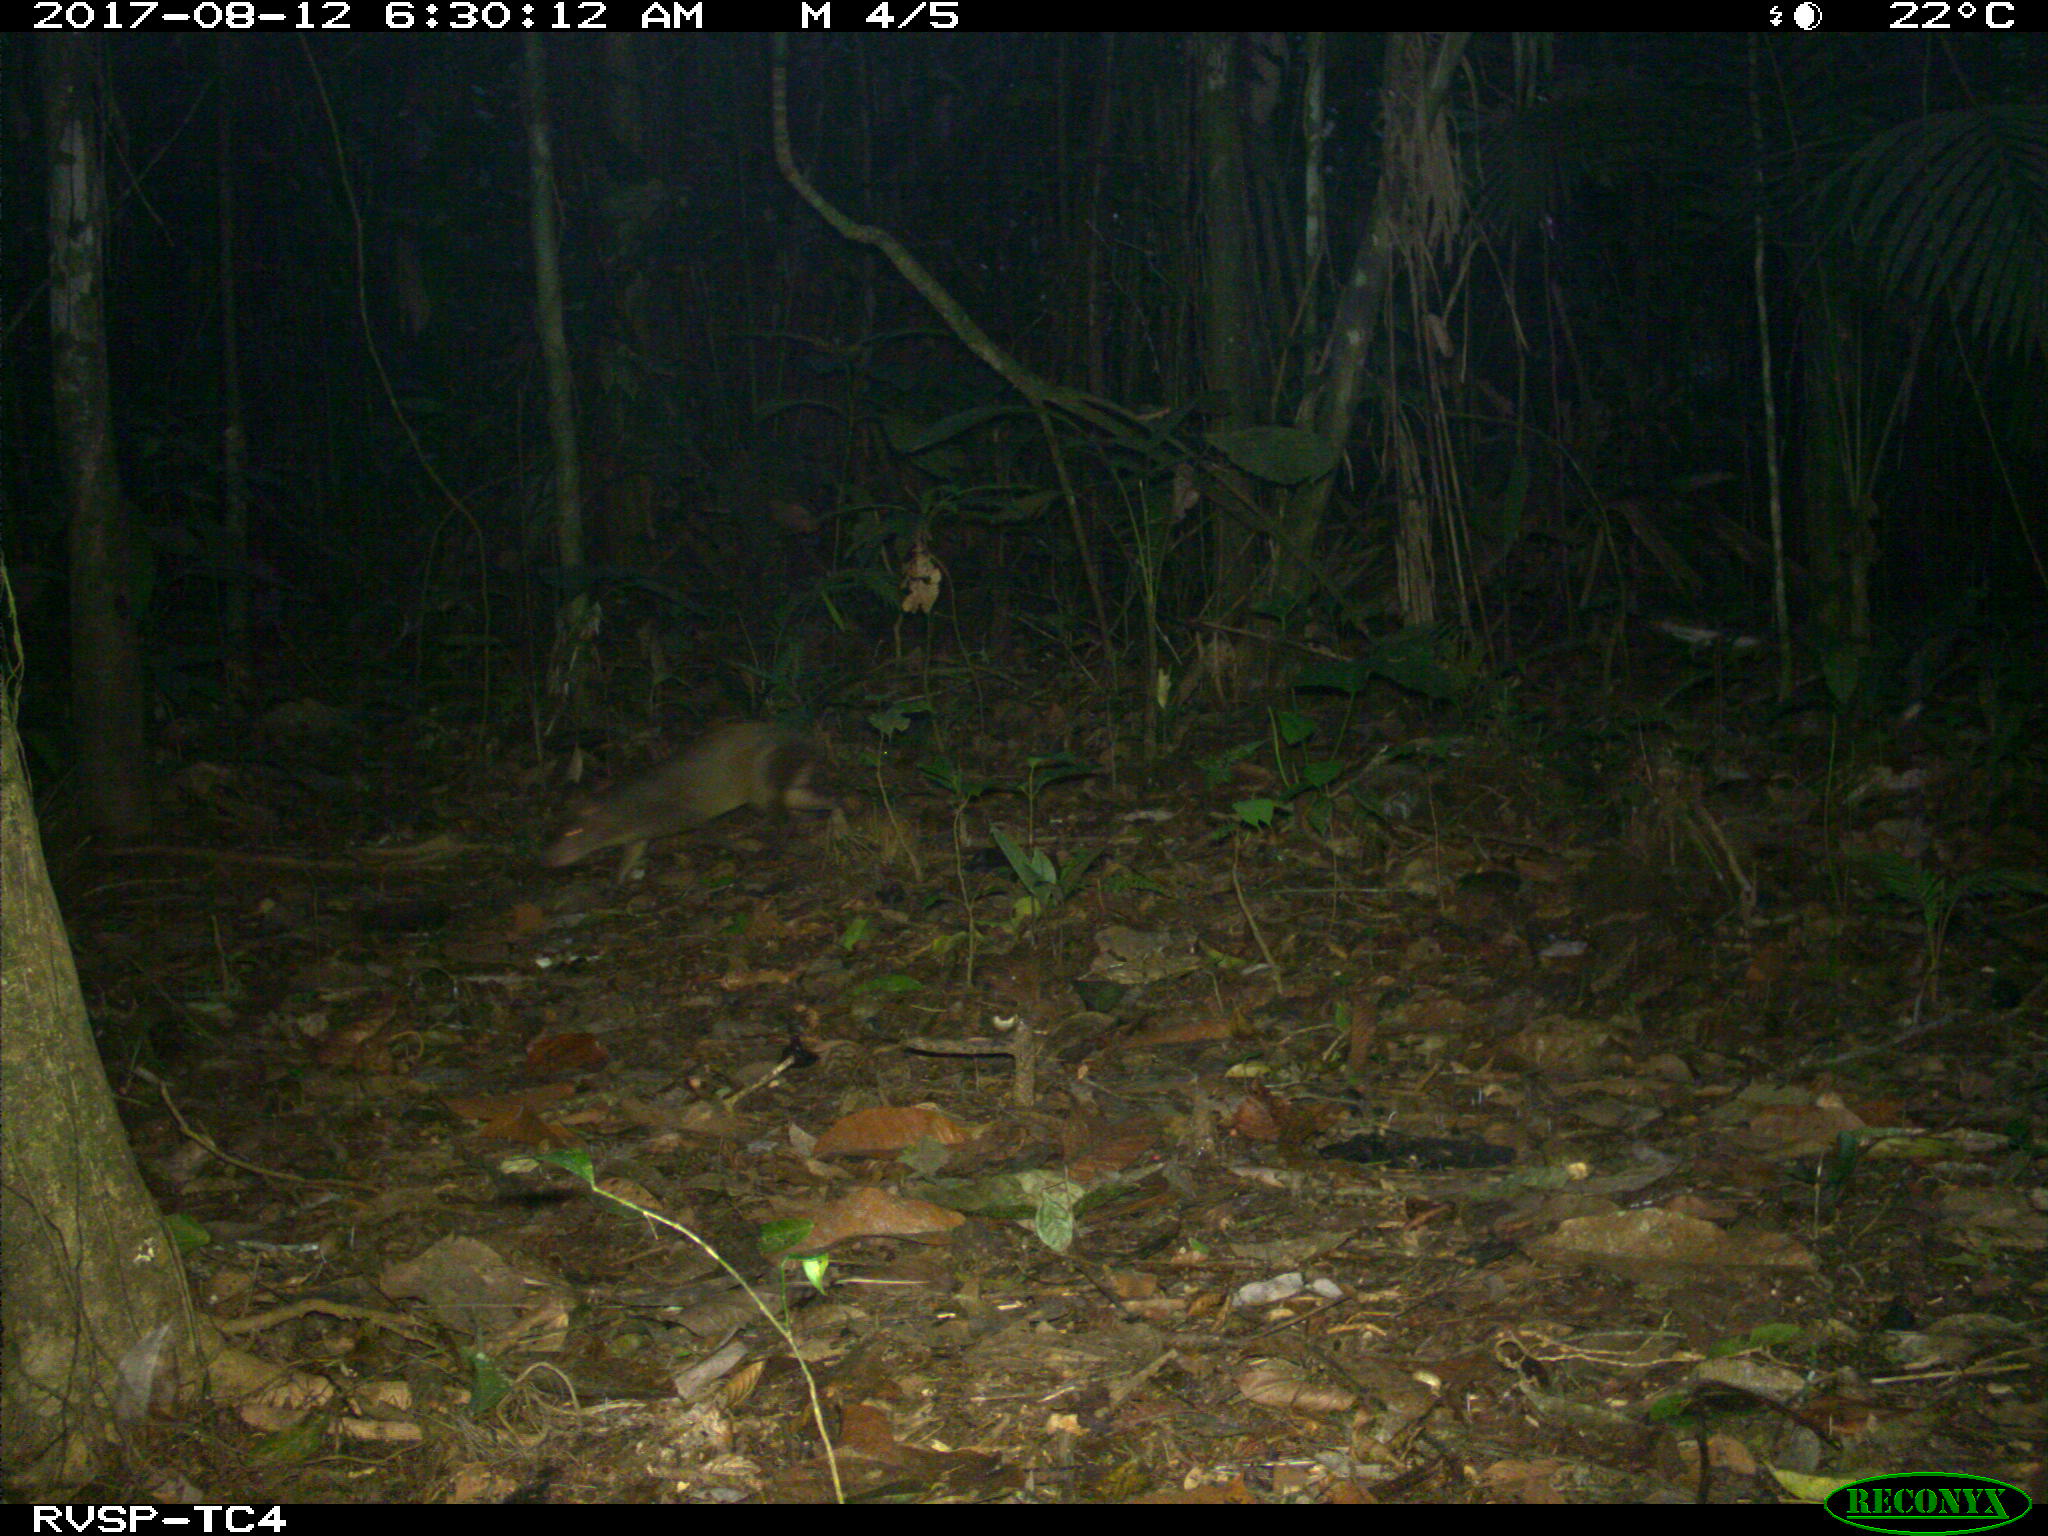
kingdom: Animalia
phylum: Chordata
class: Mammalia
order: Rodentia
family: Dasyproctidae
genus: Dasyprocta
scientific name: Dasyprocta punctata
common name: Central american agouti
